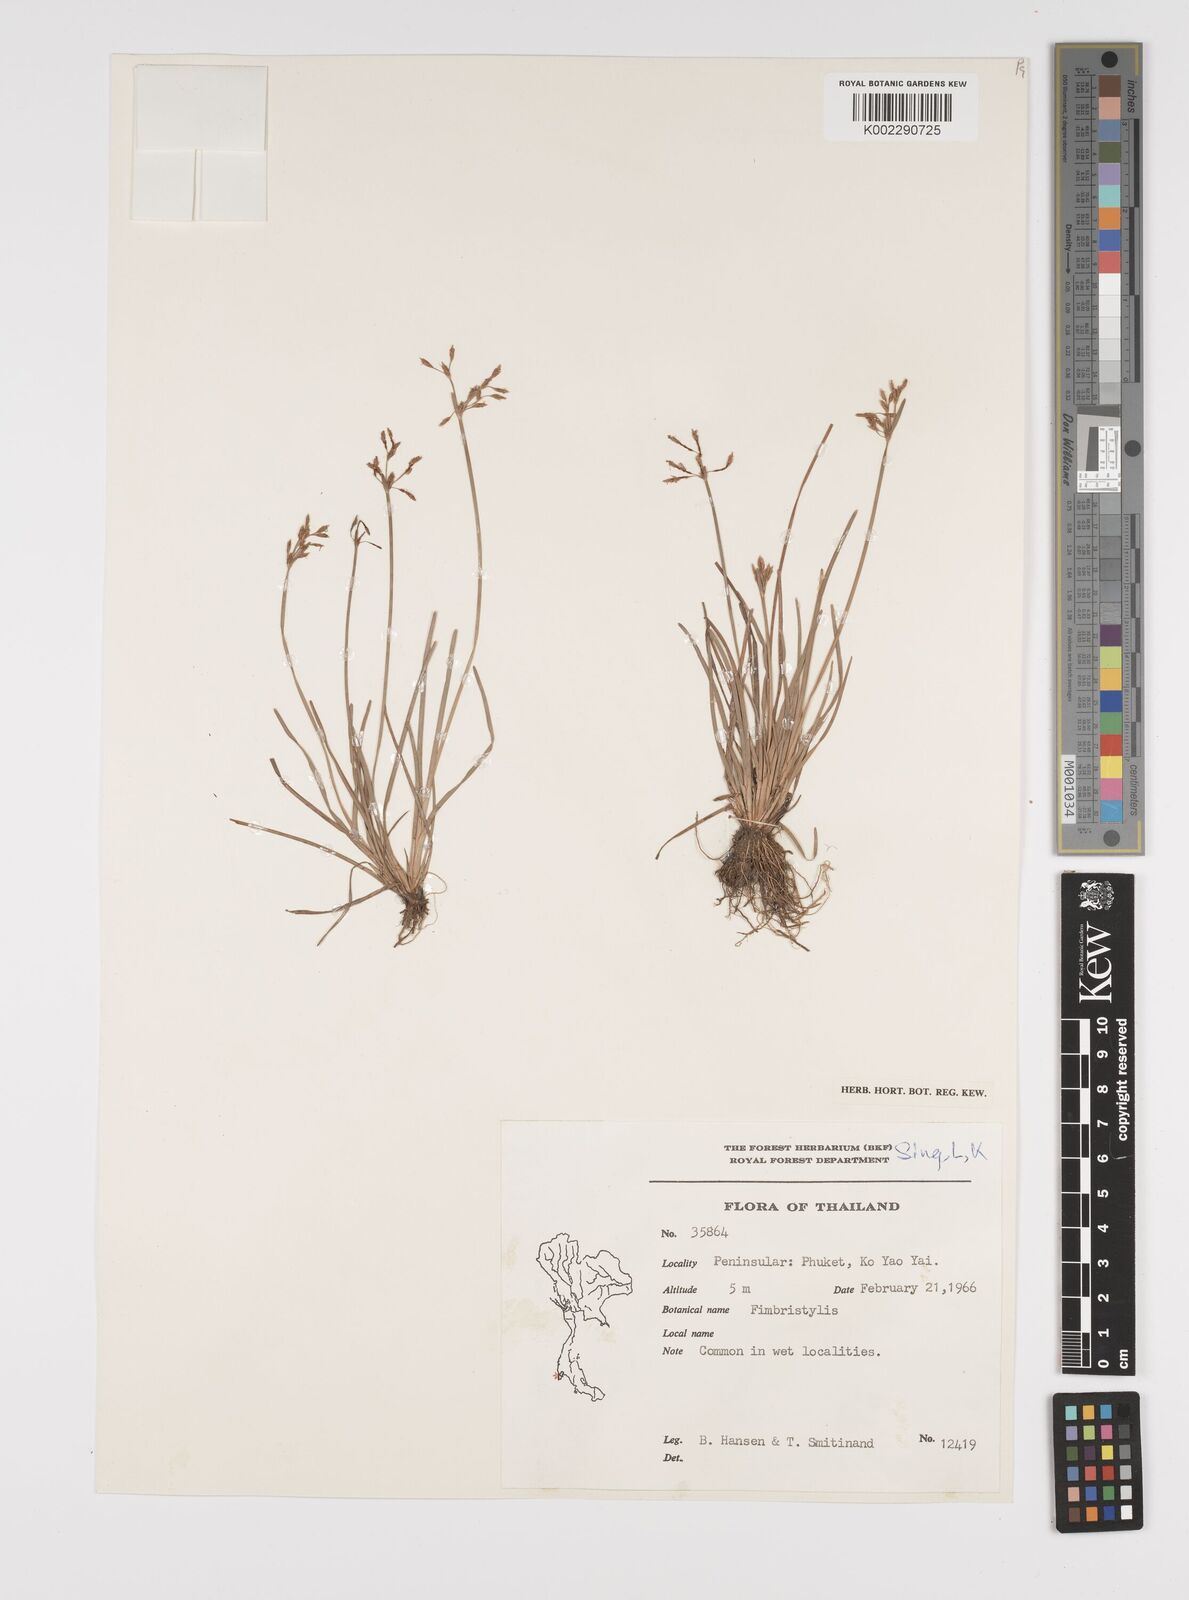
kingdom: Plantae
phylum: Tracheophyta
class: Liliopsida
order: Poales
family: Cyperaceae
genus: Fimbristylis
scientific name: Fimbristylis
